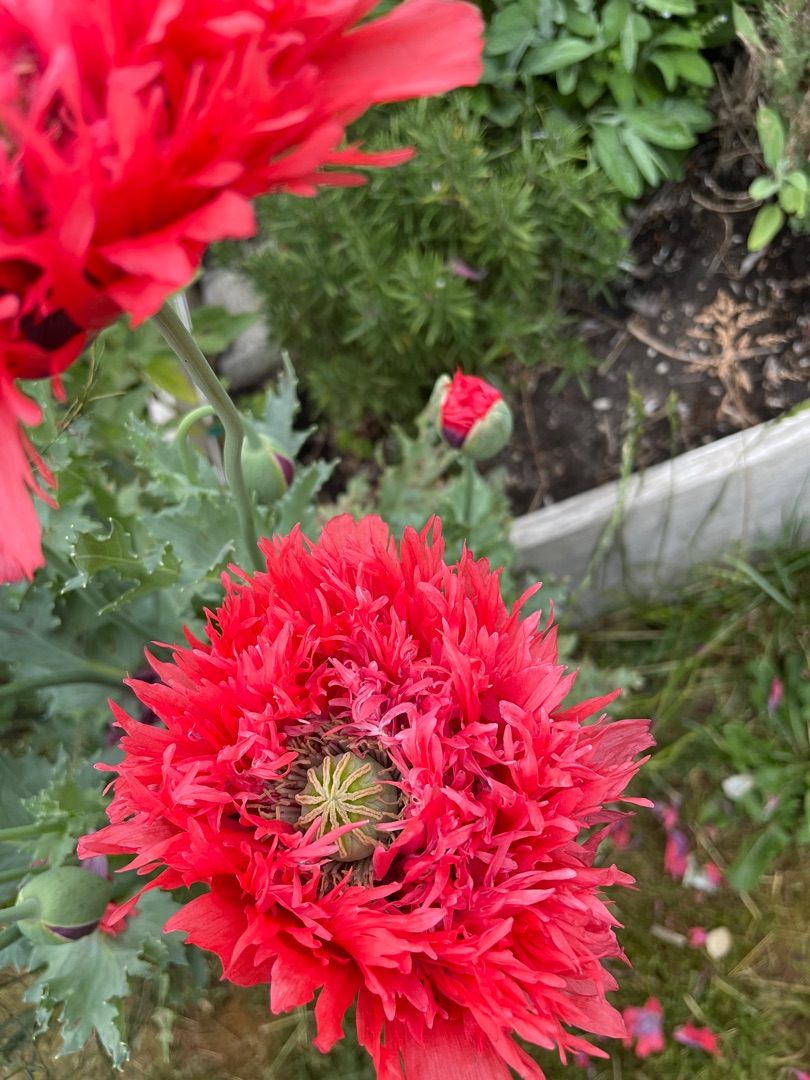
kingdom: Plantae
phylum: Tracheophyta
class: Magnoliopsida
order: Ranunculales
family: Papaveraceae
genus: Papaver
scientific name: Papaver somniferum
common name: Opium-valmue
